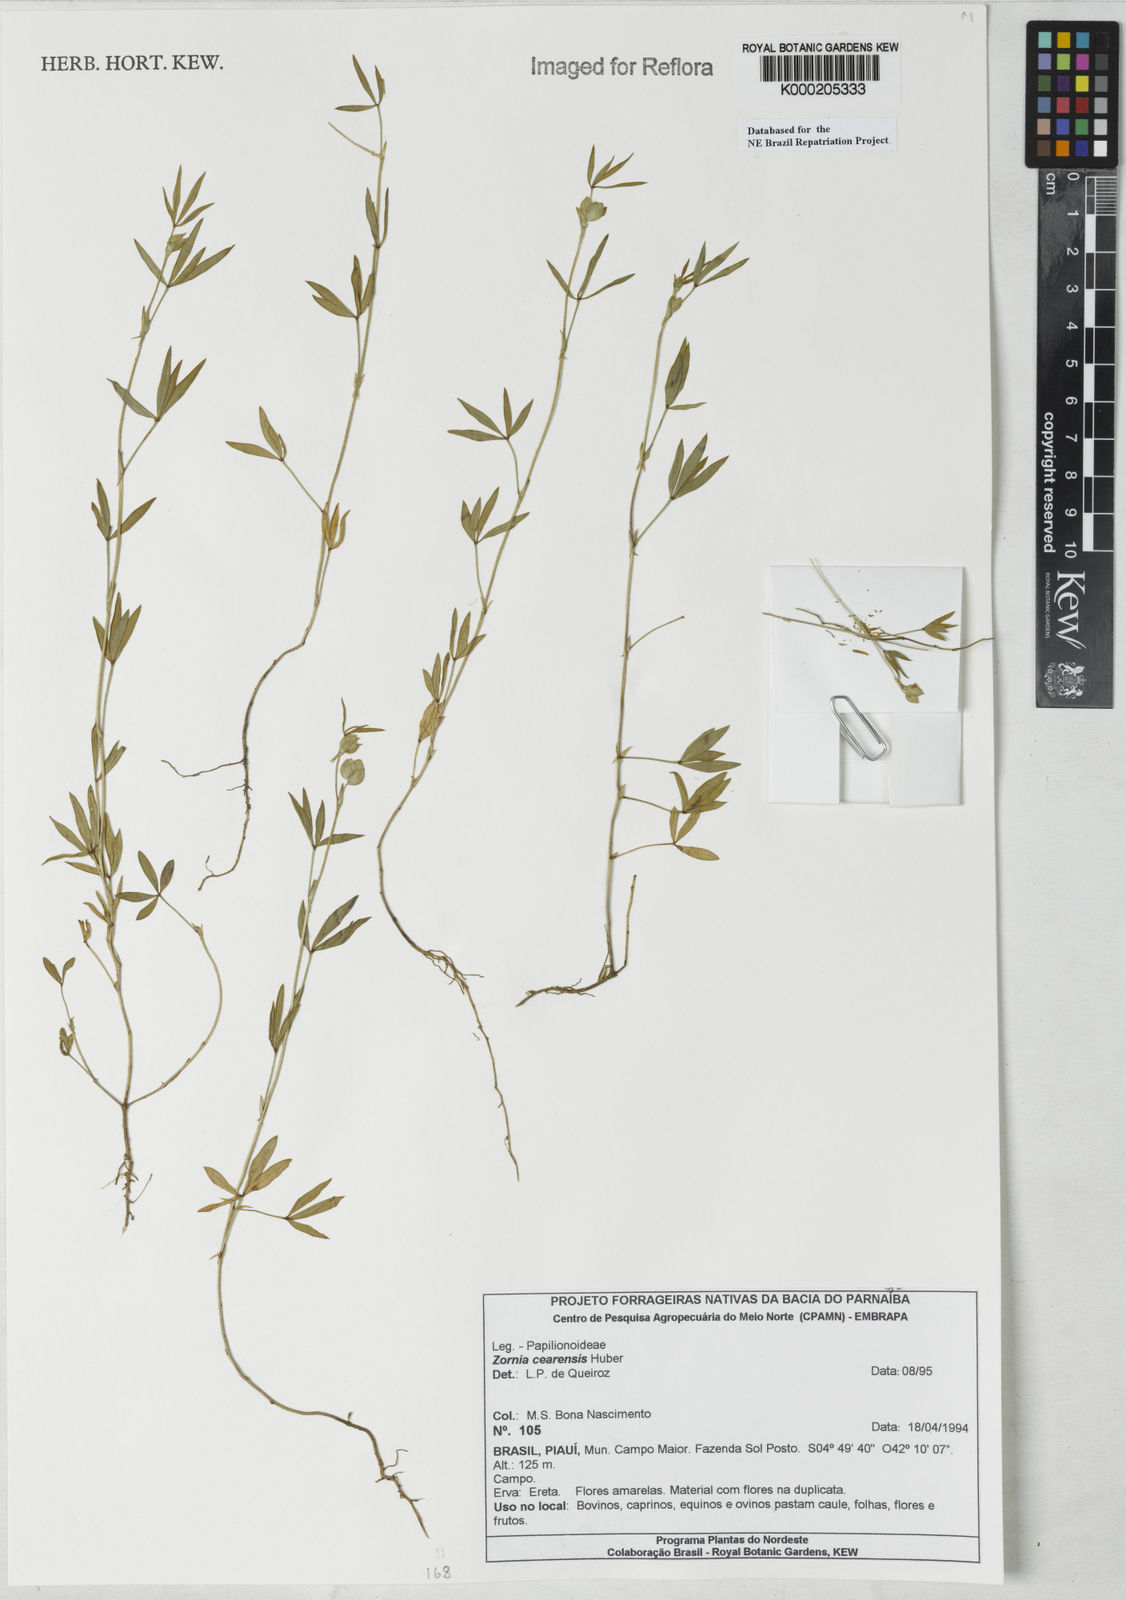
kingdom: Plantae
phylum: Tracheophyta
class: Magnoliopsida
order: Fabales
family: Fabaceae
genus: Zornia
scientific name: Zornia cearensis
